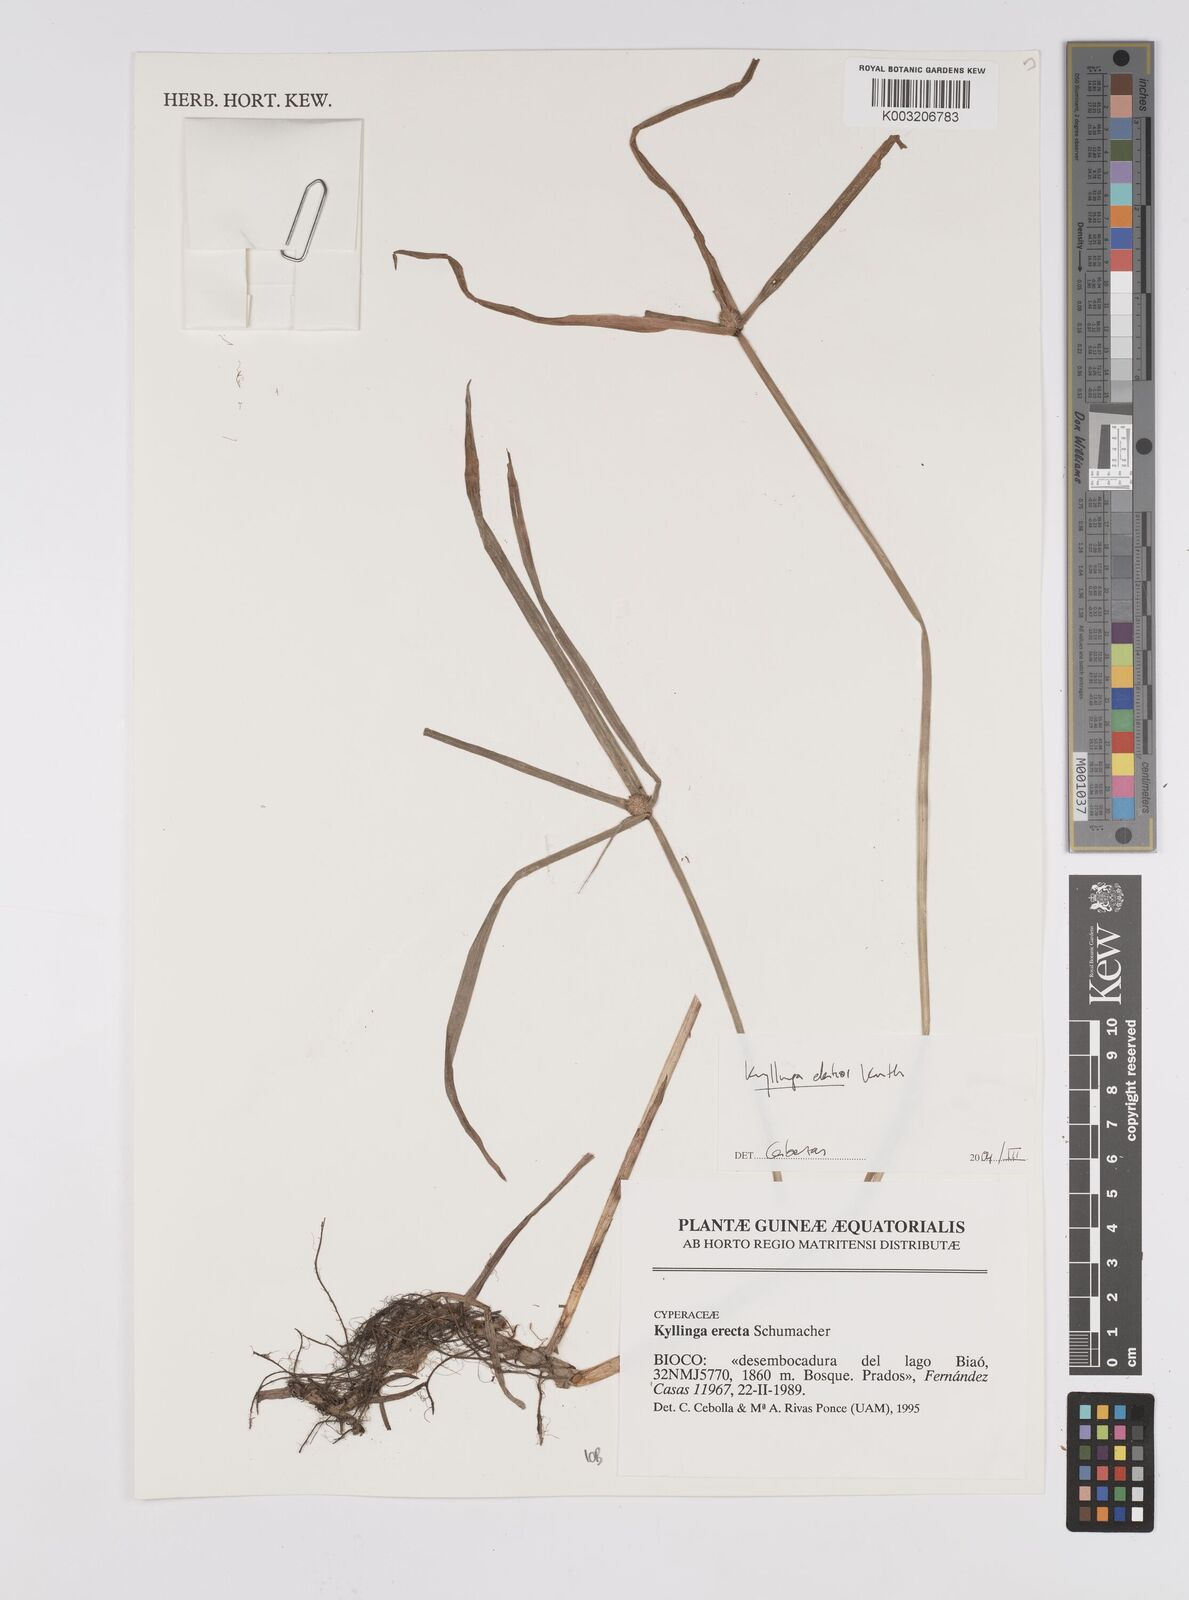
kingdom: Plantae
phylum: Tracheophyta
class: Liliopsida
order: Poales
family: Cyperaceae
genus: Cyperus
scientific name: Cyperus
